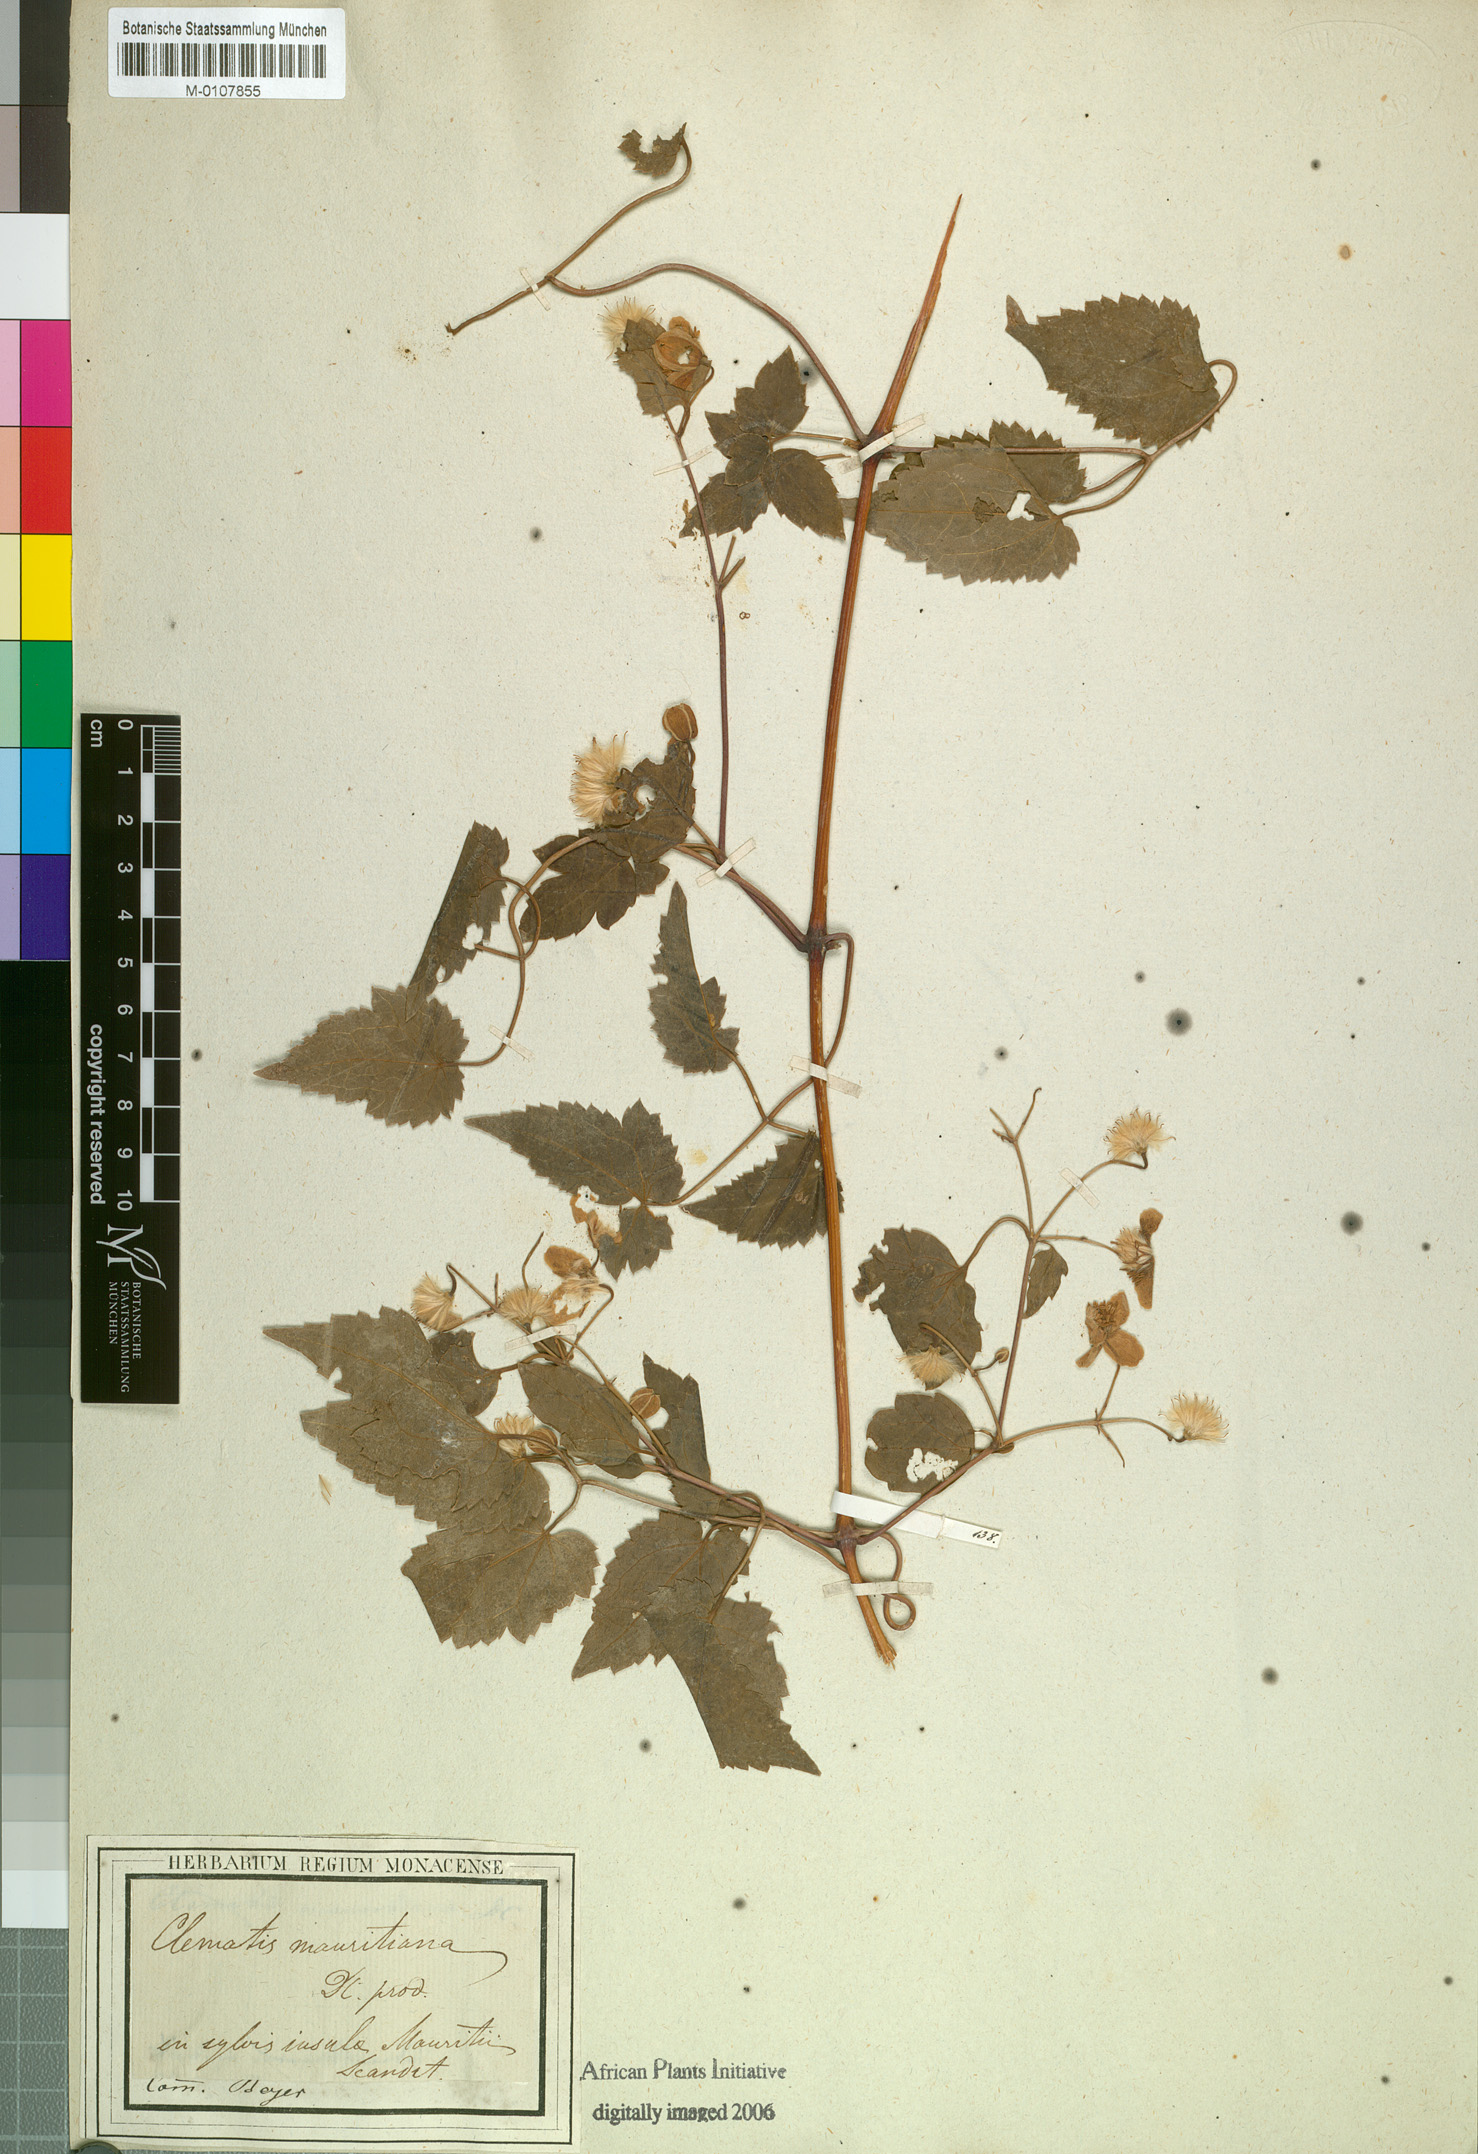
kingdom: Plantae
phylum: Tracheophyta
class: Magnoliopsida
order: Ranunculales
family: Ranunculaceae
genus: Clematis
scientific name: Clematis mauritiana
